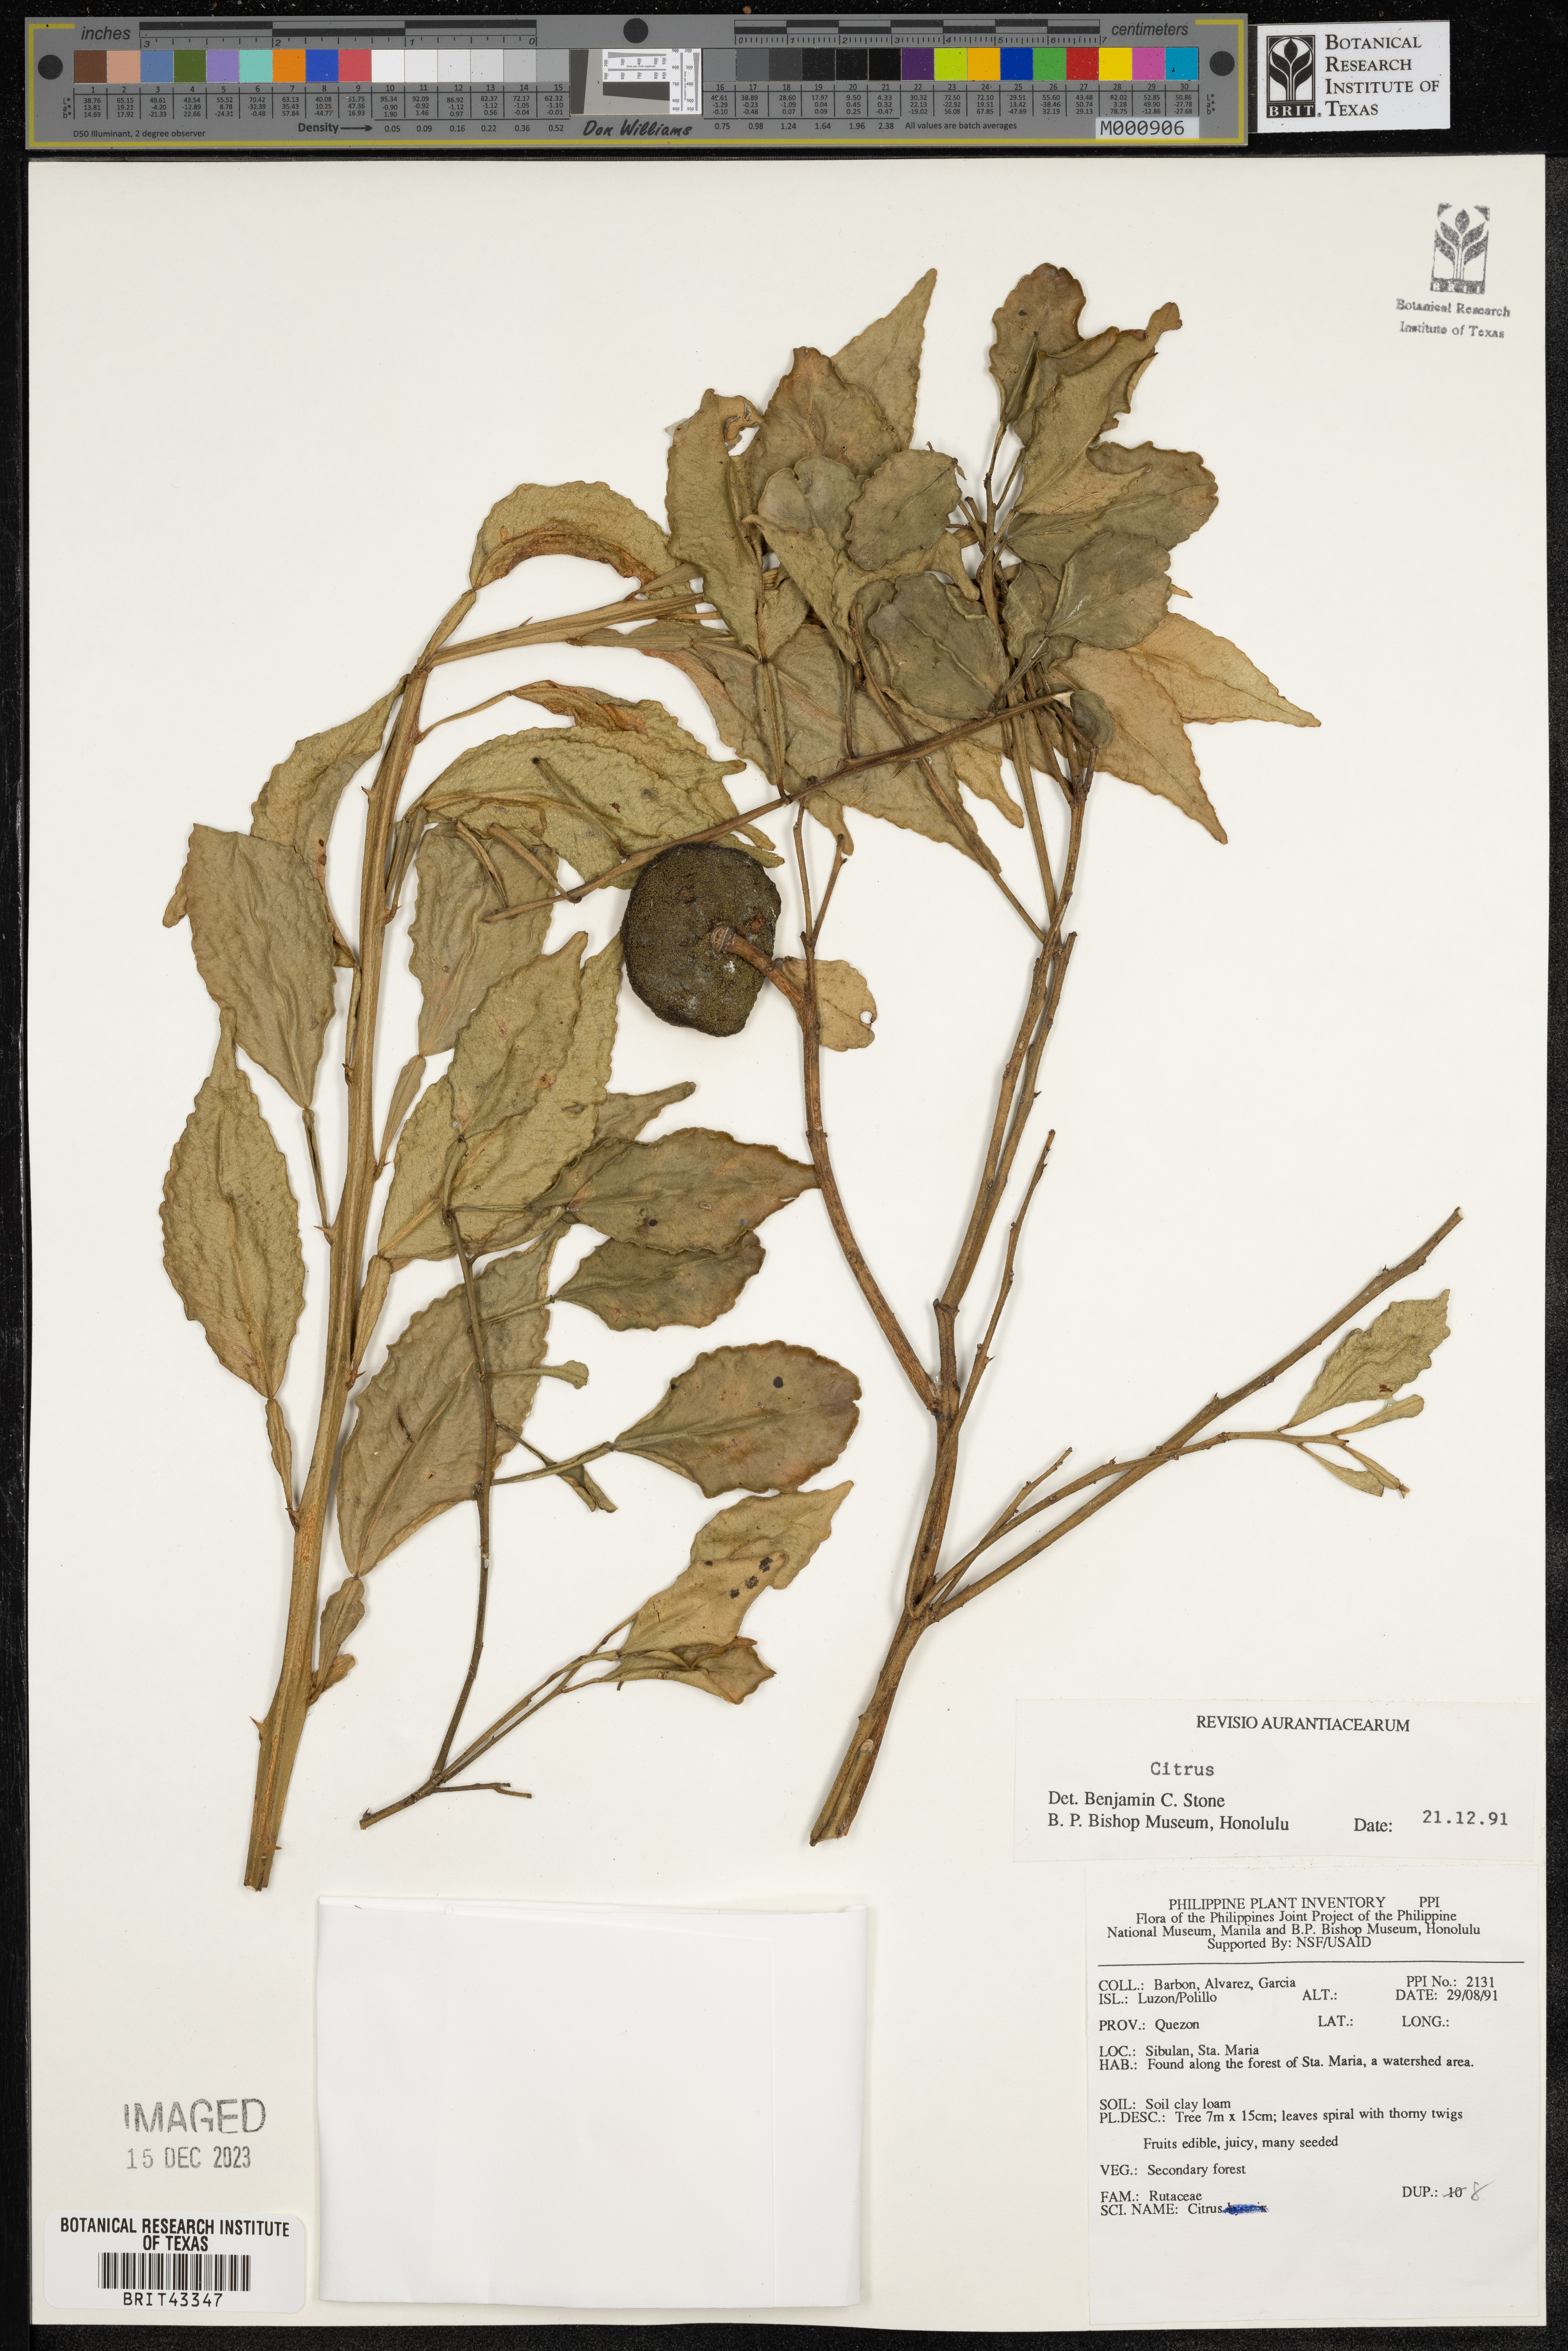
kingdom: Plantae
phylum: Tracheophyta
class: Magnoliopsida
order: Sapindales
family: Rutaceae
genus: Citrus
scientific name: Citrus
